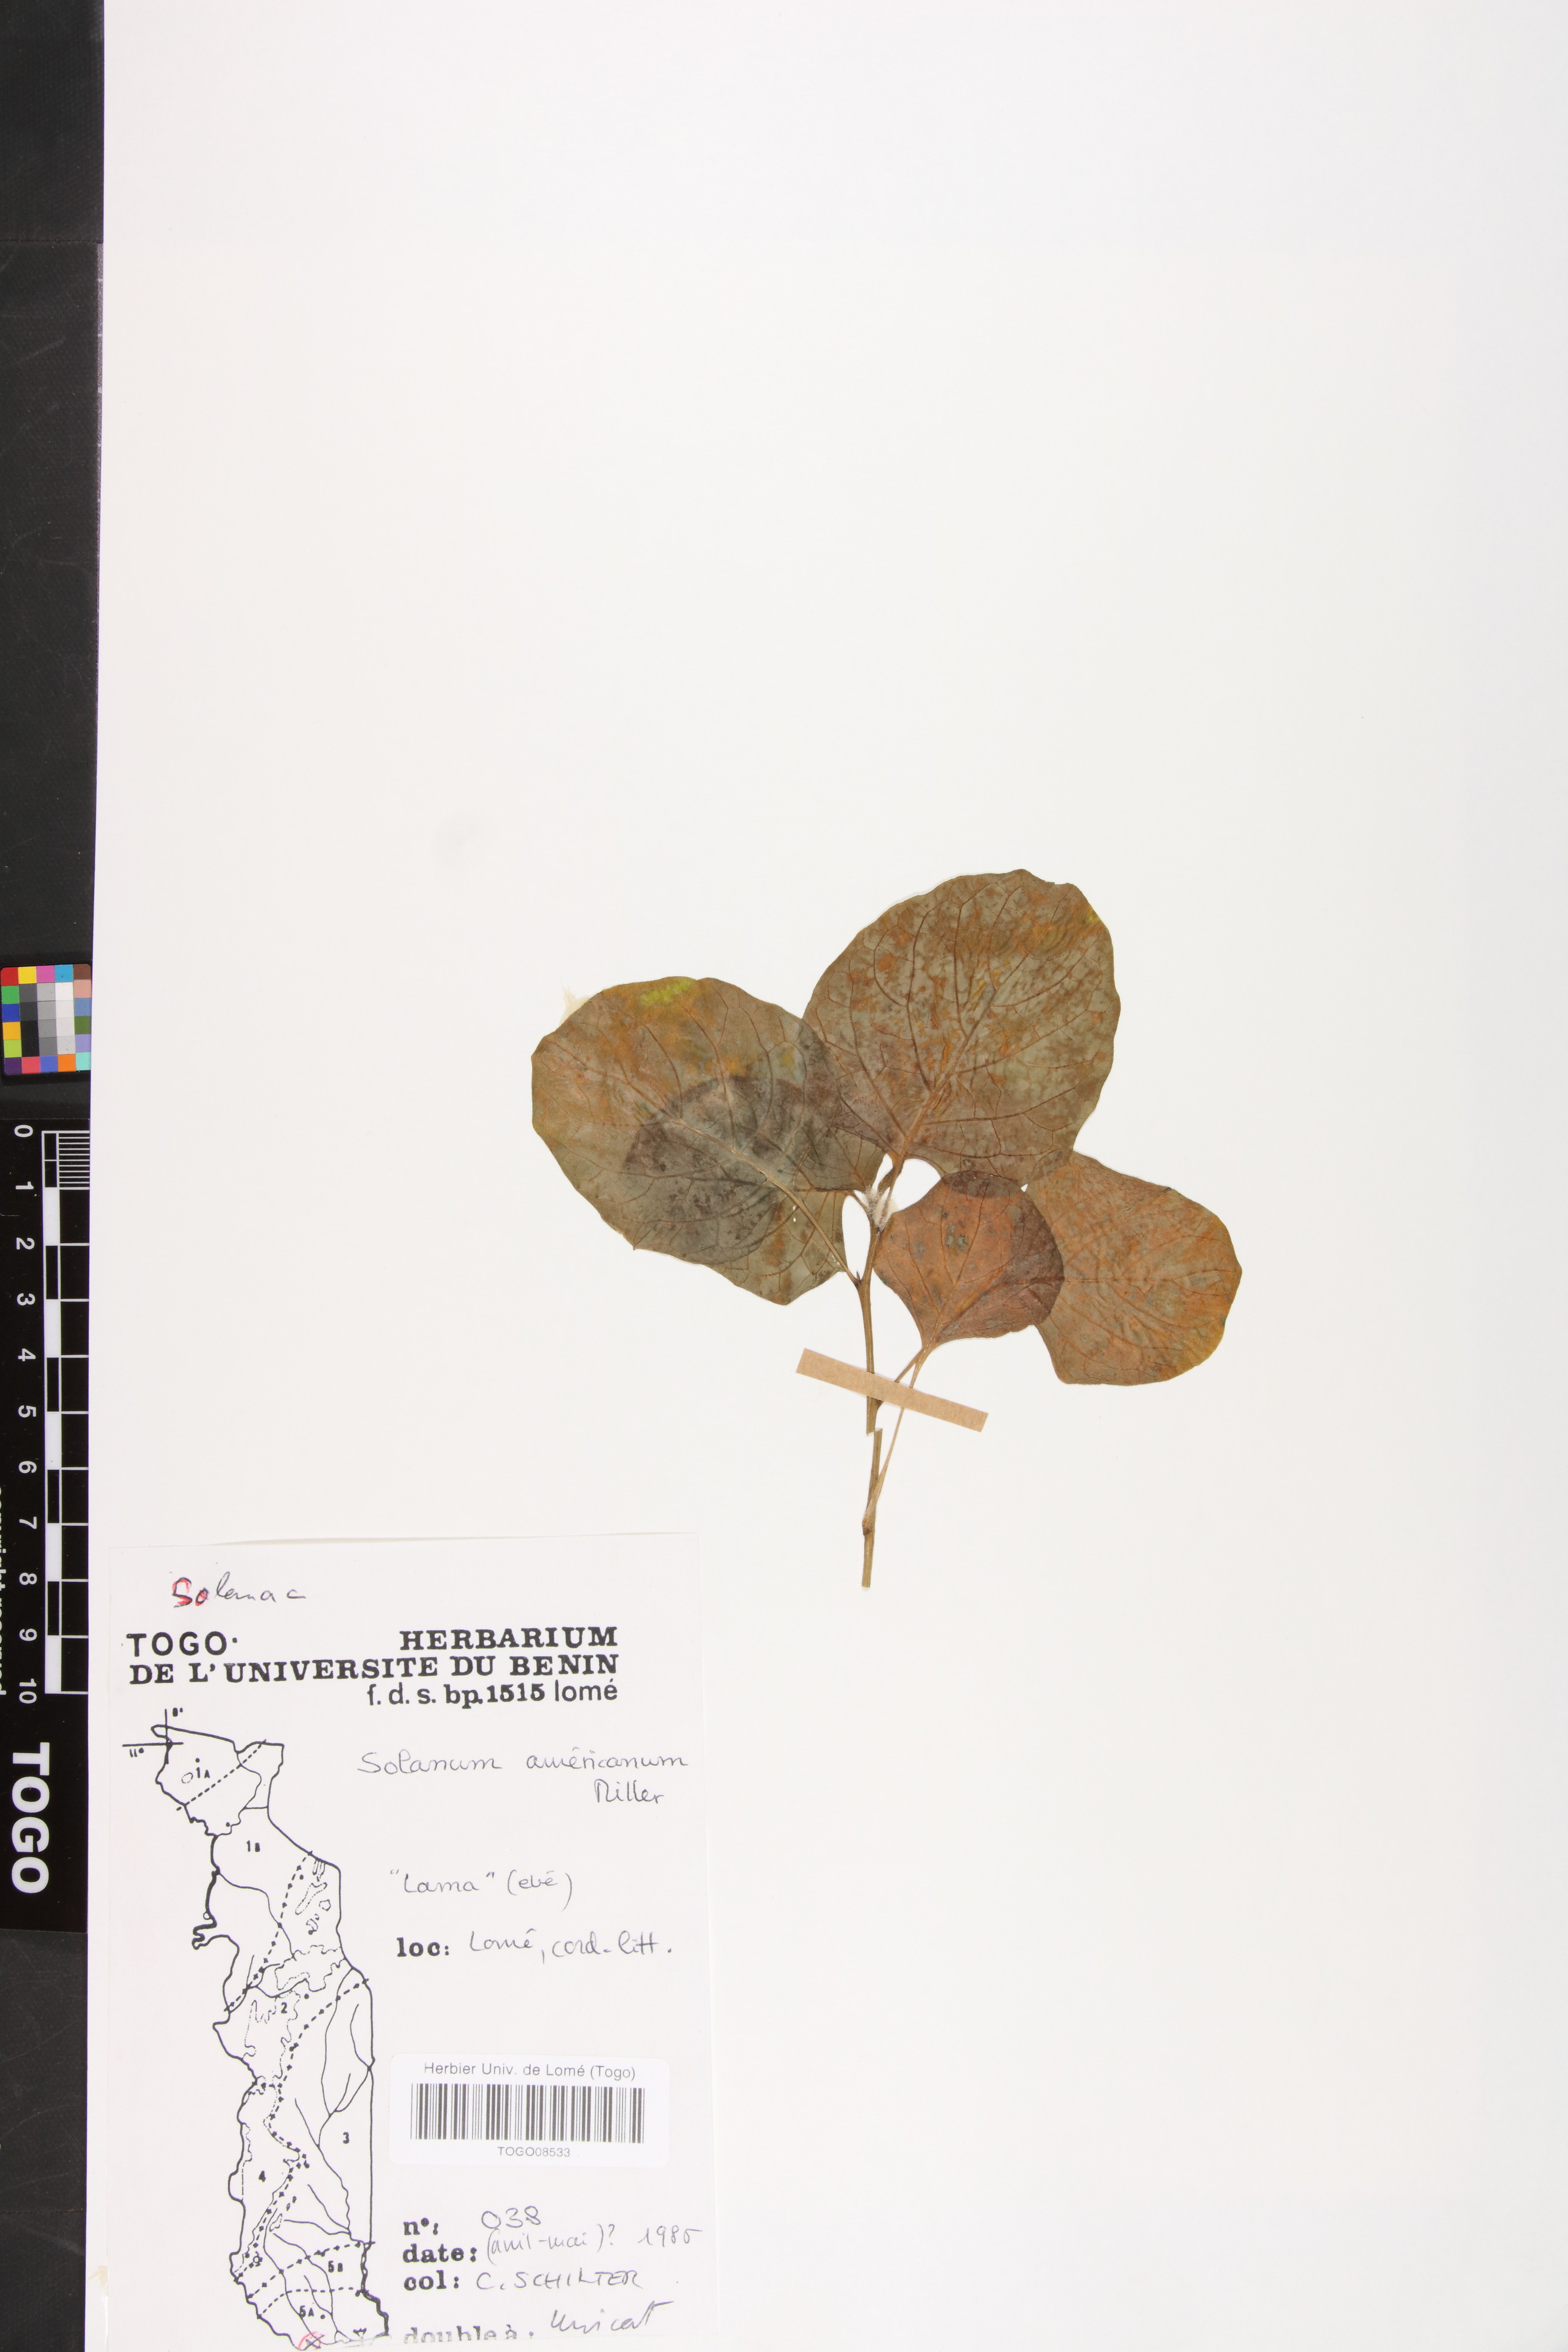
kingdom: Plantae
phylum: Tracheophyta
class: Magnoliopsida
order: Solanales
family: Solanaceae
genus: Solanum
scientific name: Solanum americanum
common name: American black nightshade
